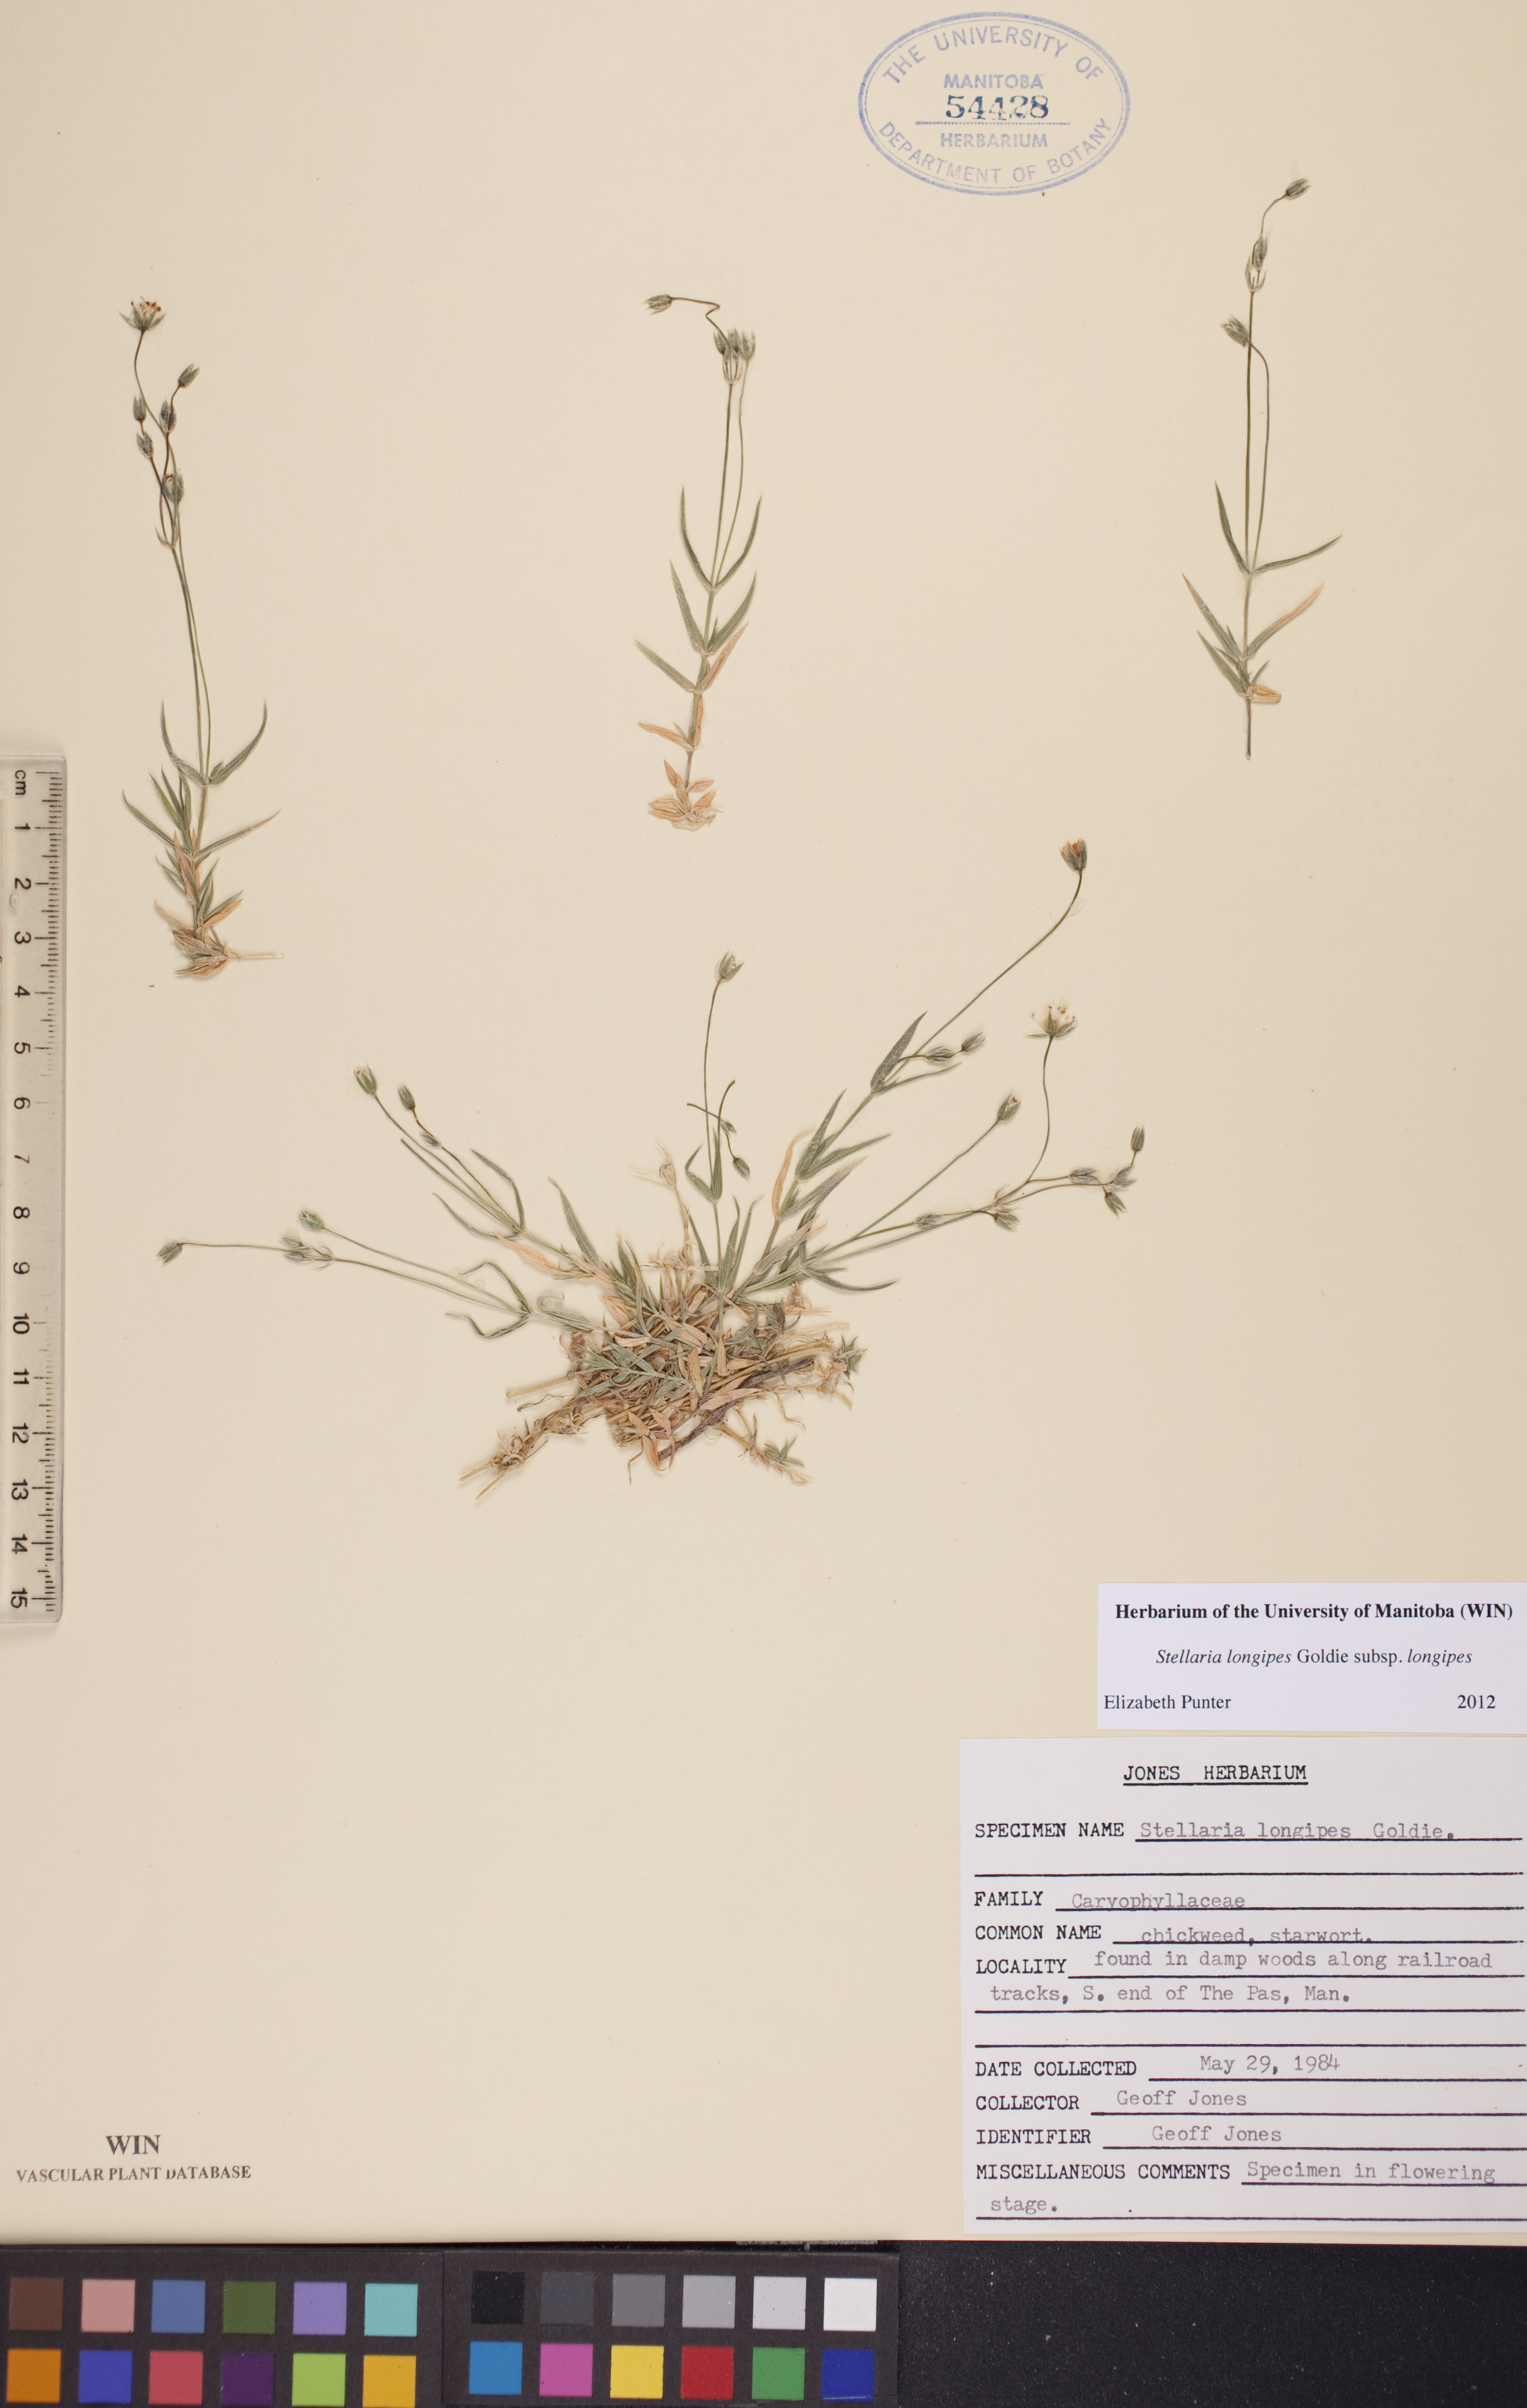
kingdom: Plantae
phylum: Tracheophyta
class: Magnoliopsida
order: Caryophyllales
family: Caryophyllaceae
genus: Stellaria
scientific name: Stellaria longipes
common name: Goldie's starwort
